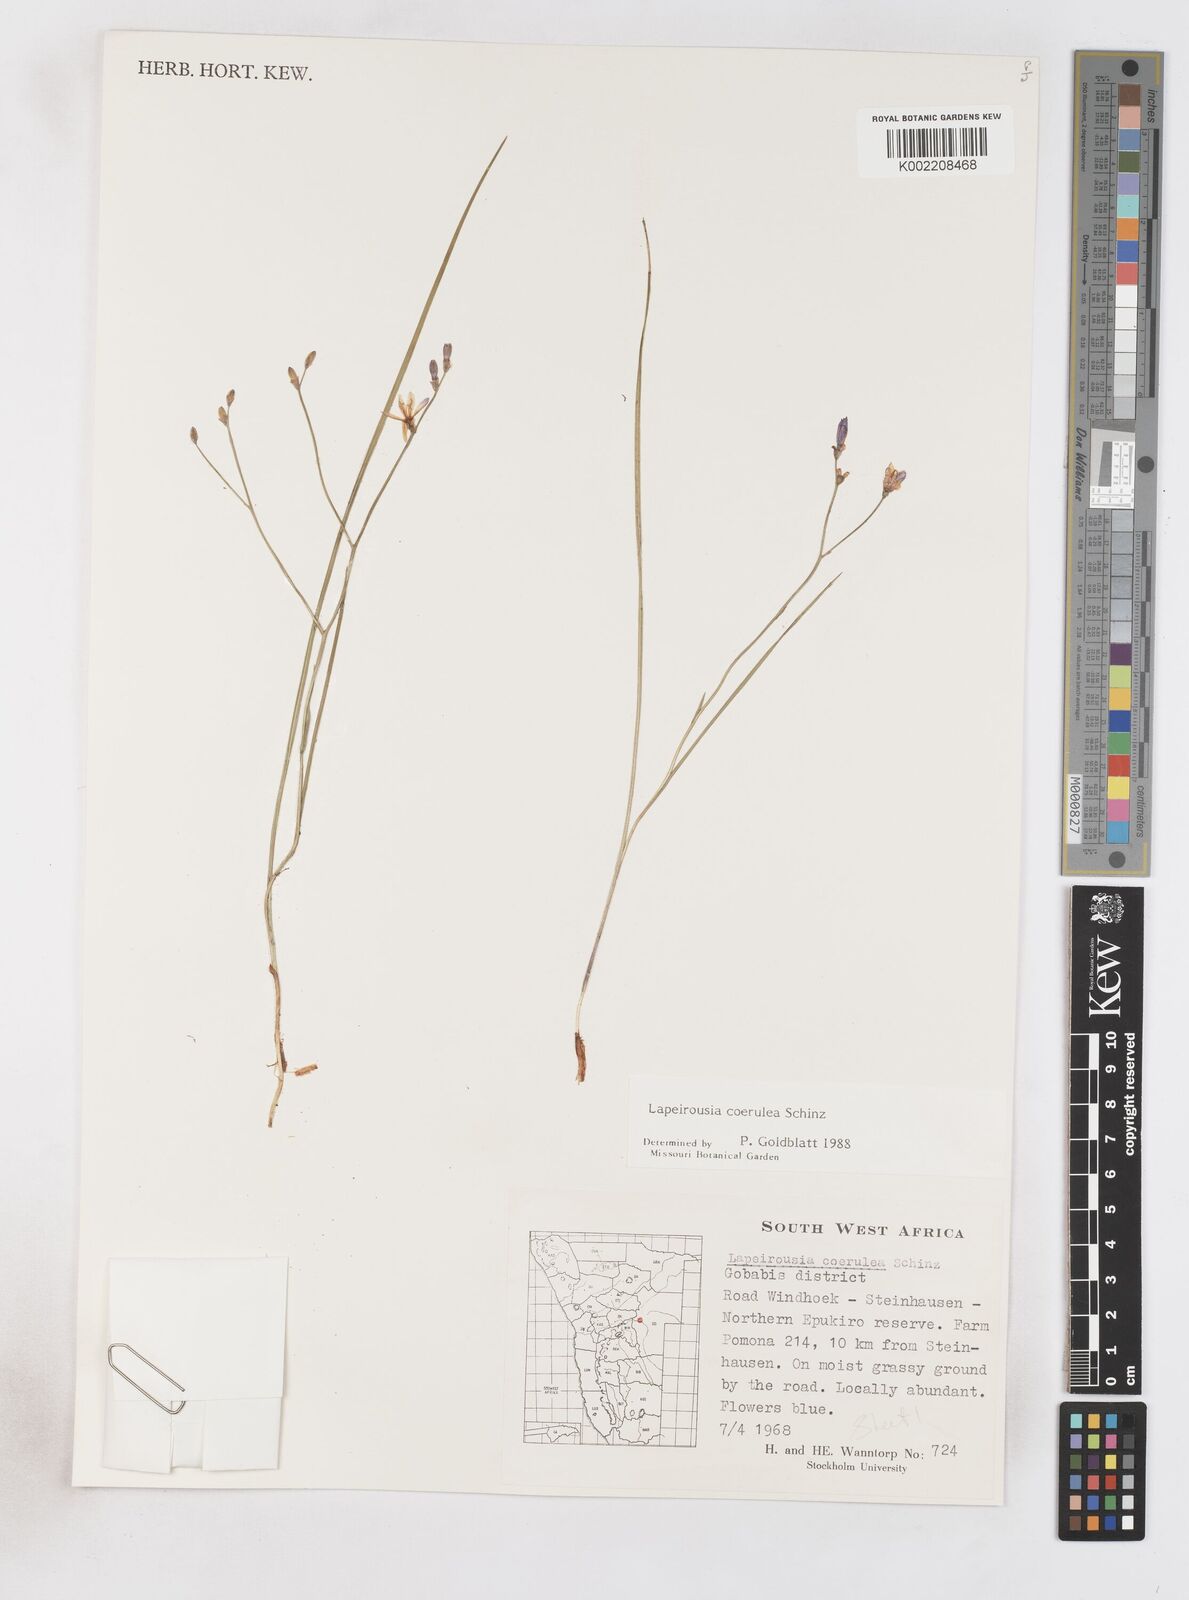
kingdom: Plantae
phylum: Tracheophyta
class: Liliopsida
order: Asparagales
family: Iridaceae
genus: Afrosolen
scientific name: Afrosolen coeruleus
